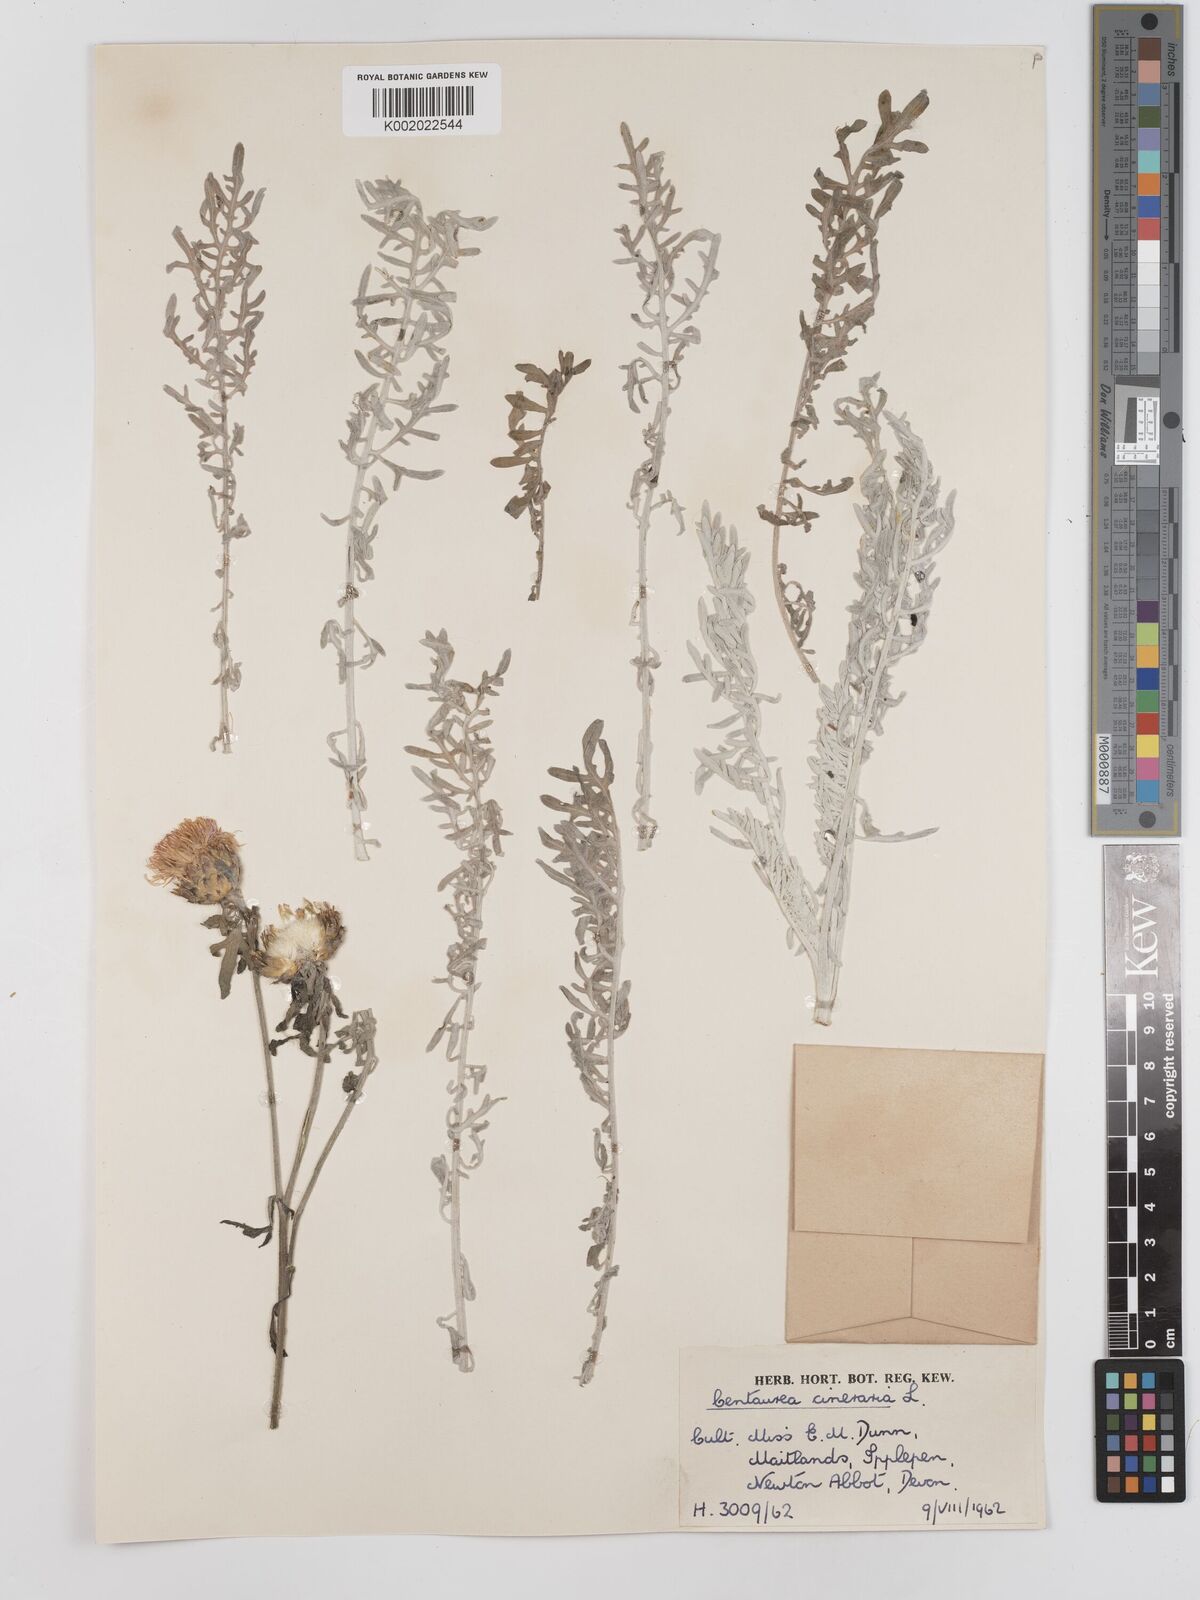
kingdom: Plantae
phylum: Tracheophyta
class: Magnoliopsida
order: Asterales
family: Asteraceae
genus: Centaurea
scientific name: Centaurea cineraria
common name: Dusty miller
